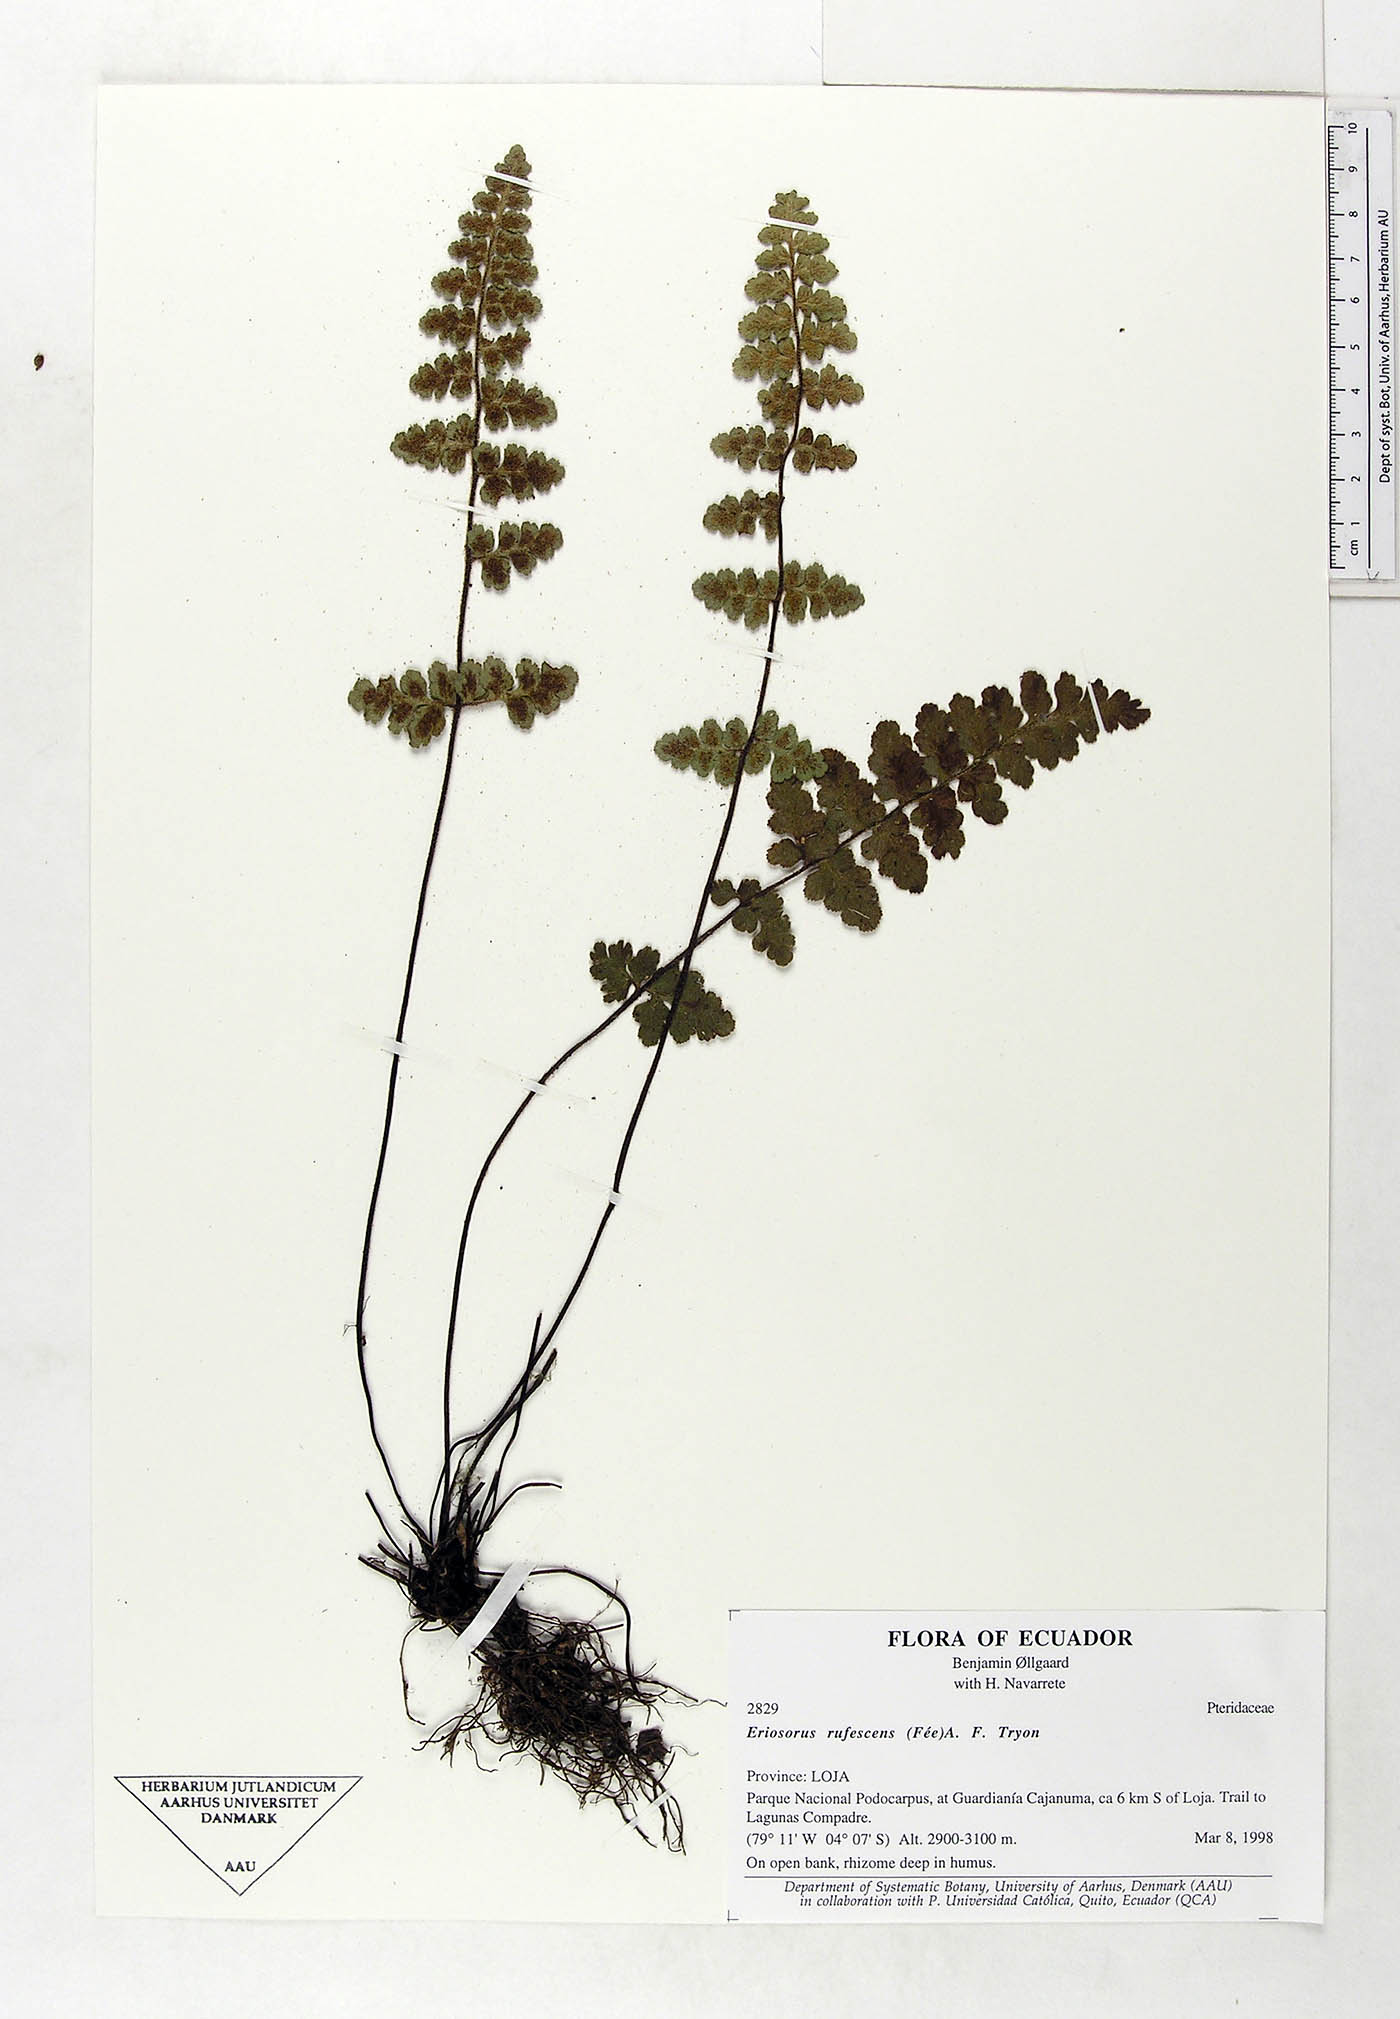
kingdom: Plantae
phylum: Tracheophyta
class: Polypodiopsida
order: Polypodiales
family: Pteridaceae
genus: Jamesonia
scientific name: Jamesonia rufescens
